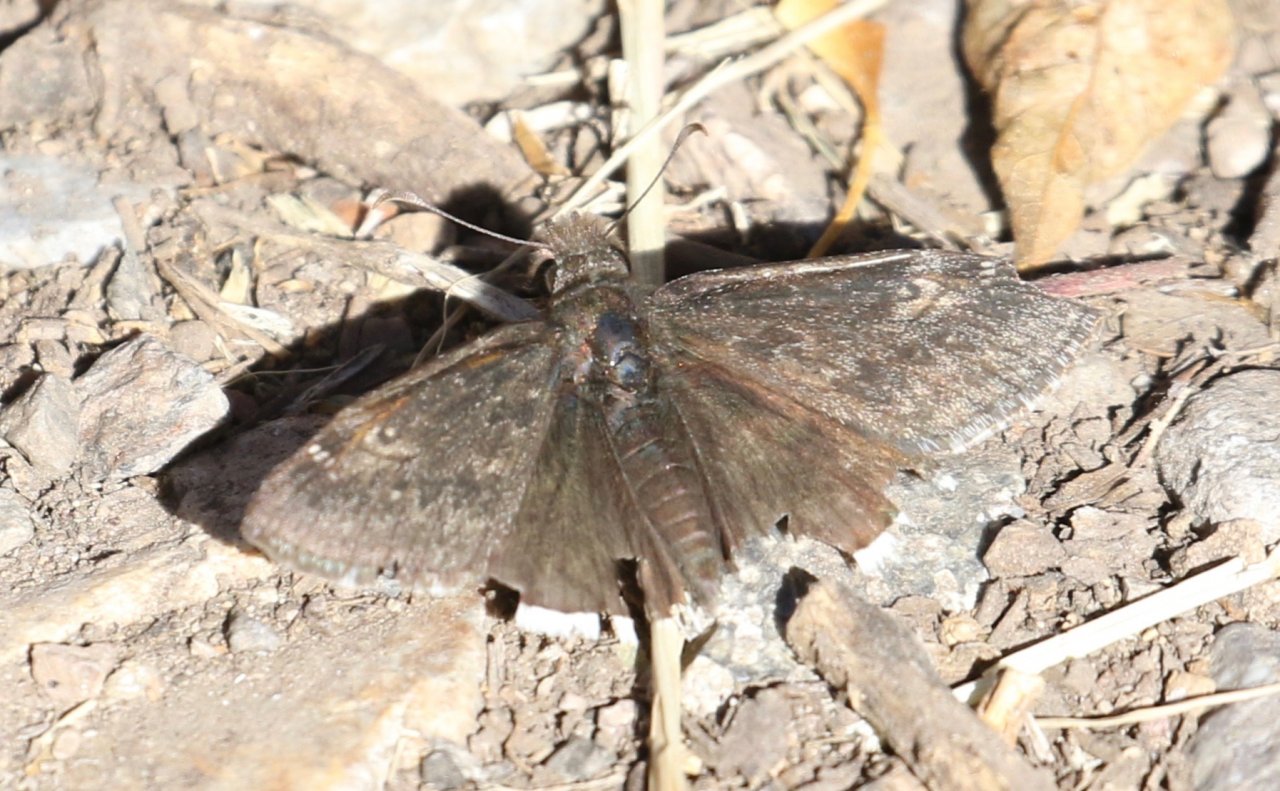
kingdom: Animalia
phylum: Arthropoda
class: Insecta
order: Lepidoptera
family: Hesperiidae
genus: Erynnis
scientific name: Erynnis funeralis
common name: Funereal Duskywing
